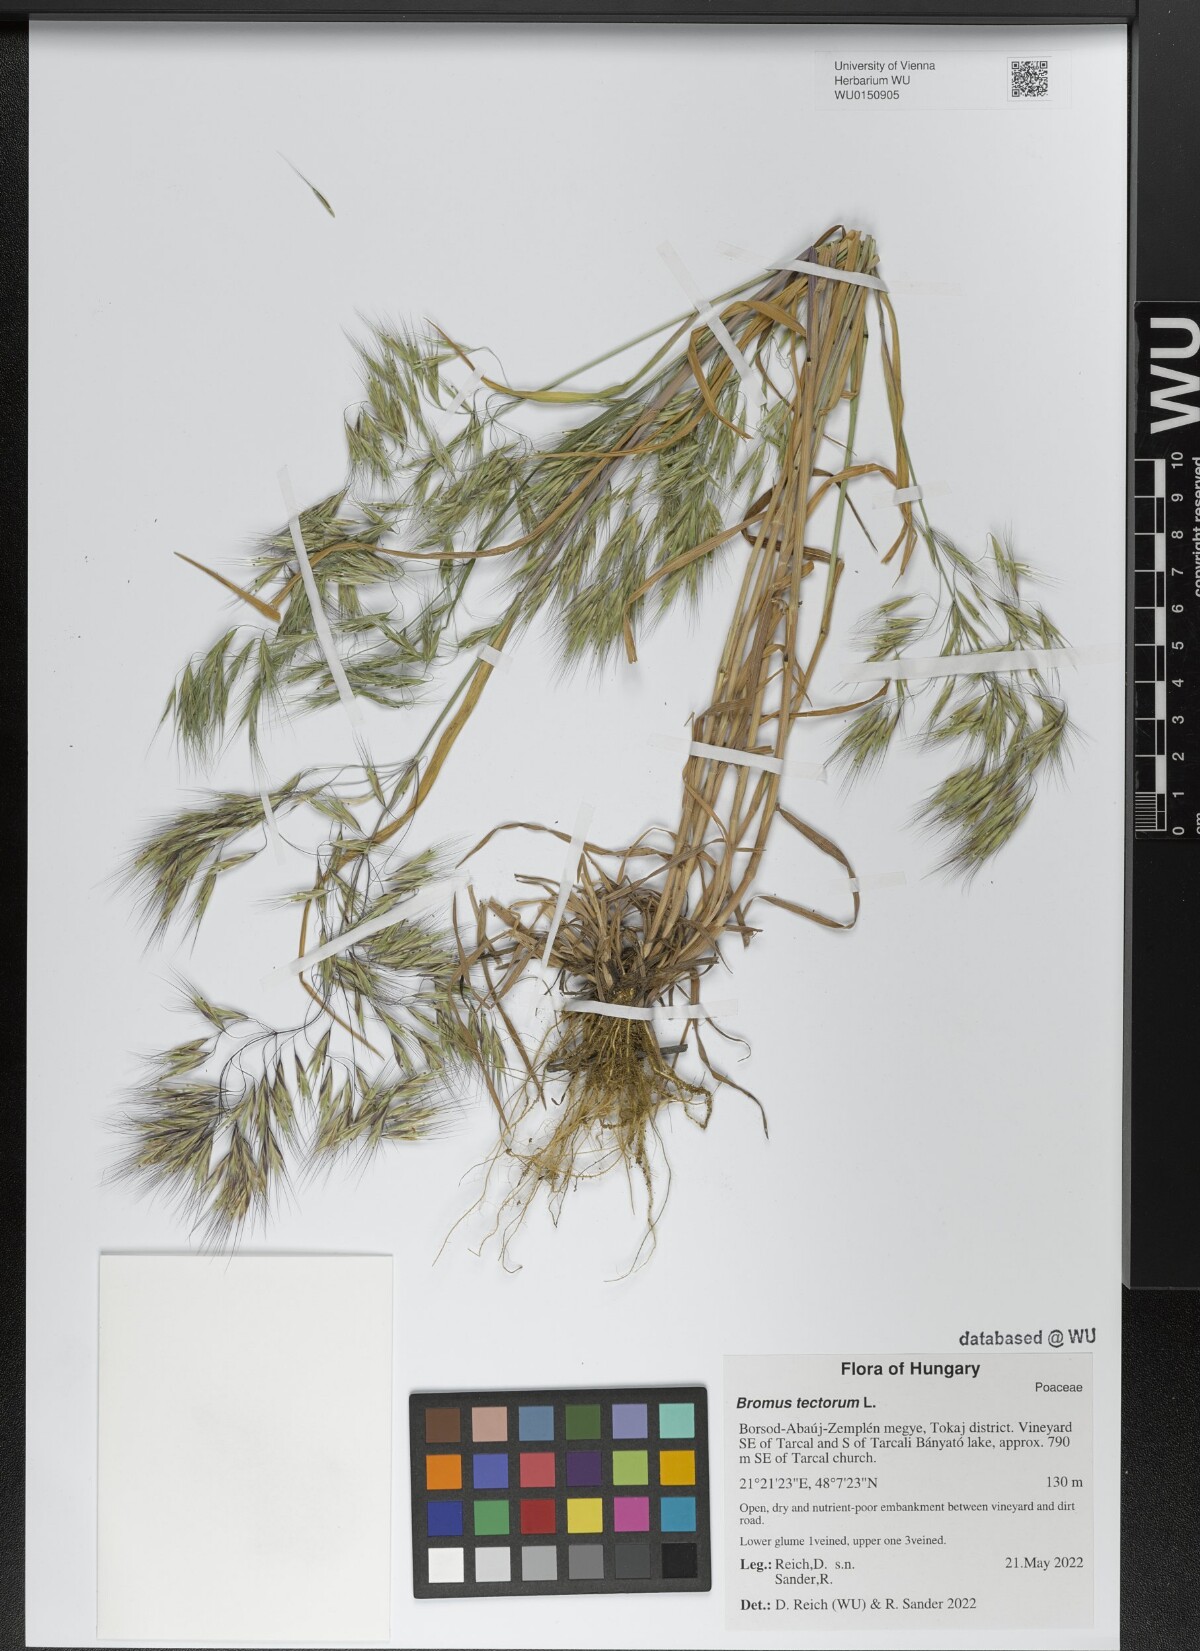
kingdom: Plantae
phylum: Tracheophyta
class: Liliopsida
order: Poales
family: Poaceae
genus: Bromus
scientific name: Bromus tectorum
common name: Cheatgrass
